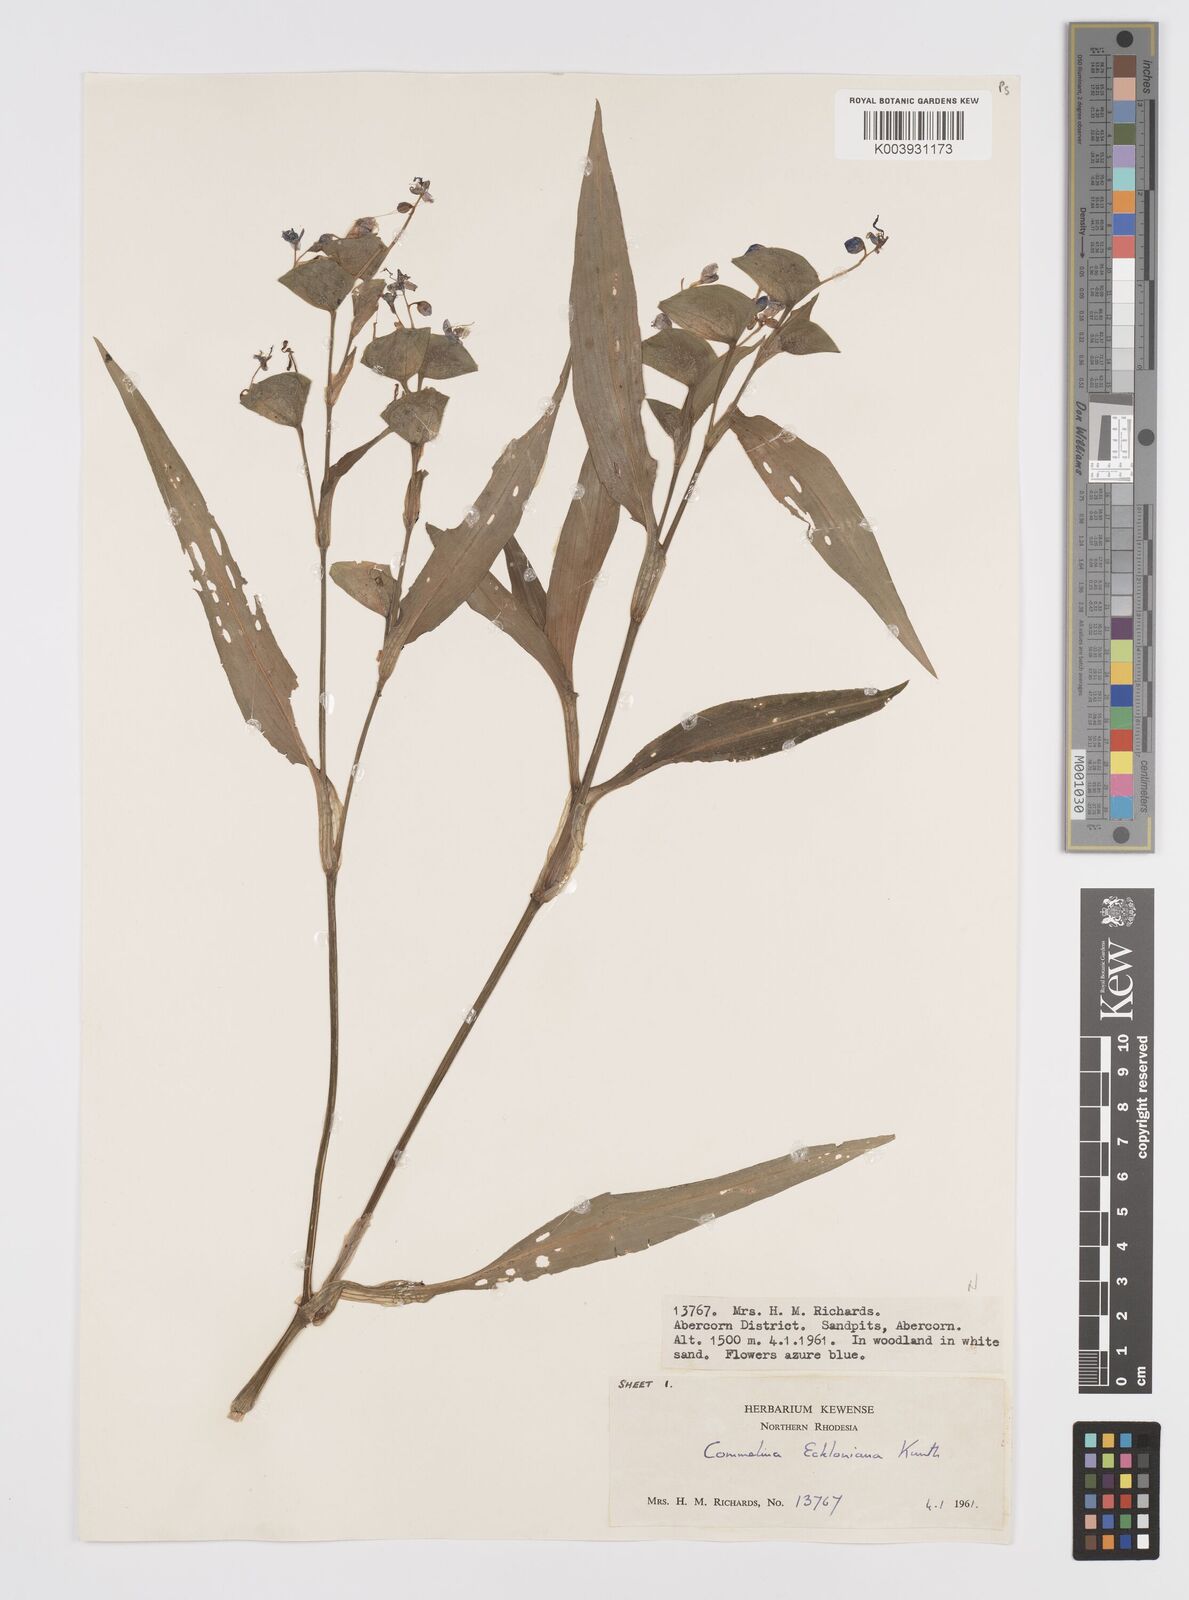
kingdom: Plantae
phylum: Tracheophyta
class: Liliopsida
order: Commelinales
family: Commelinaceae
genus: Commelina
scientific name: Commelina eckloniana
